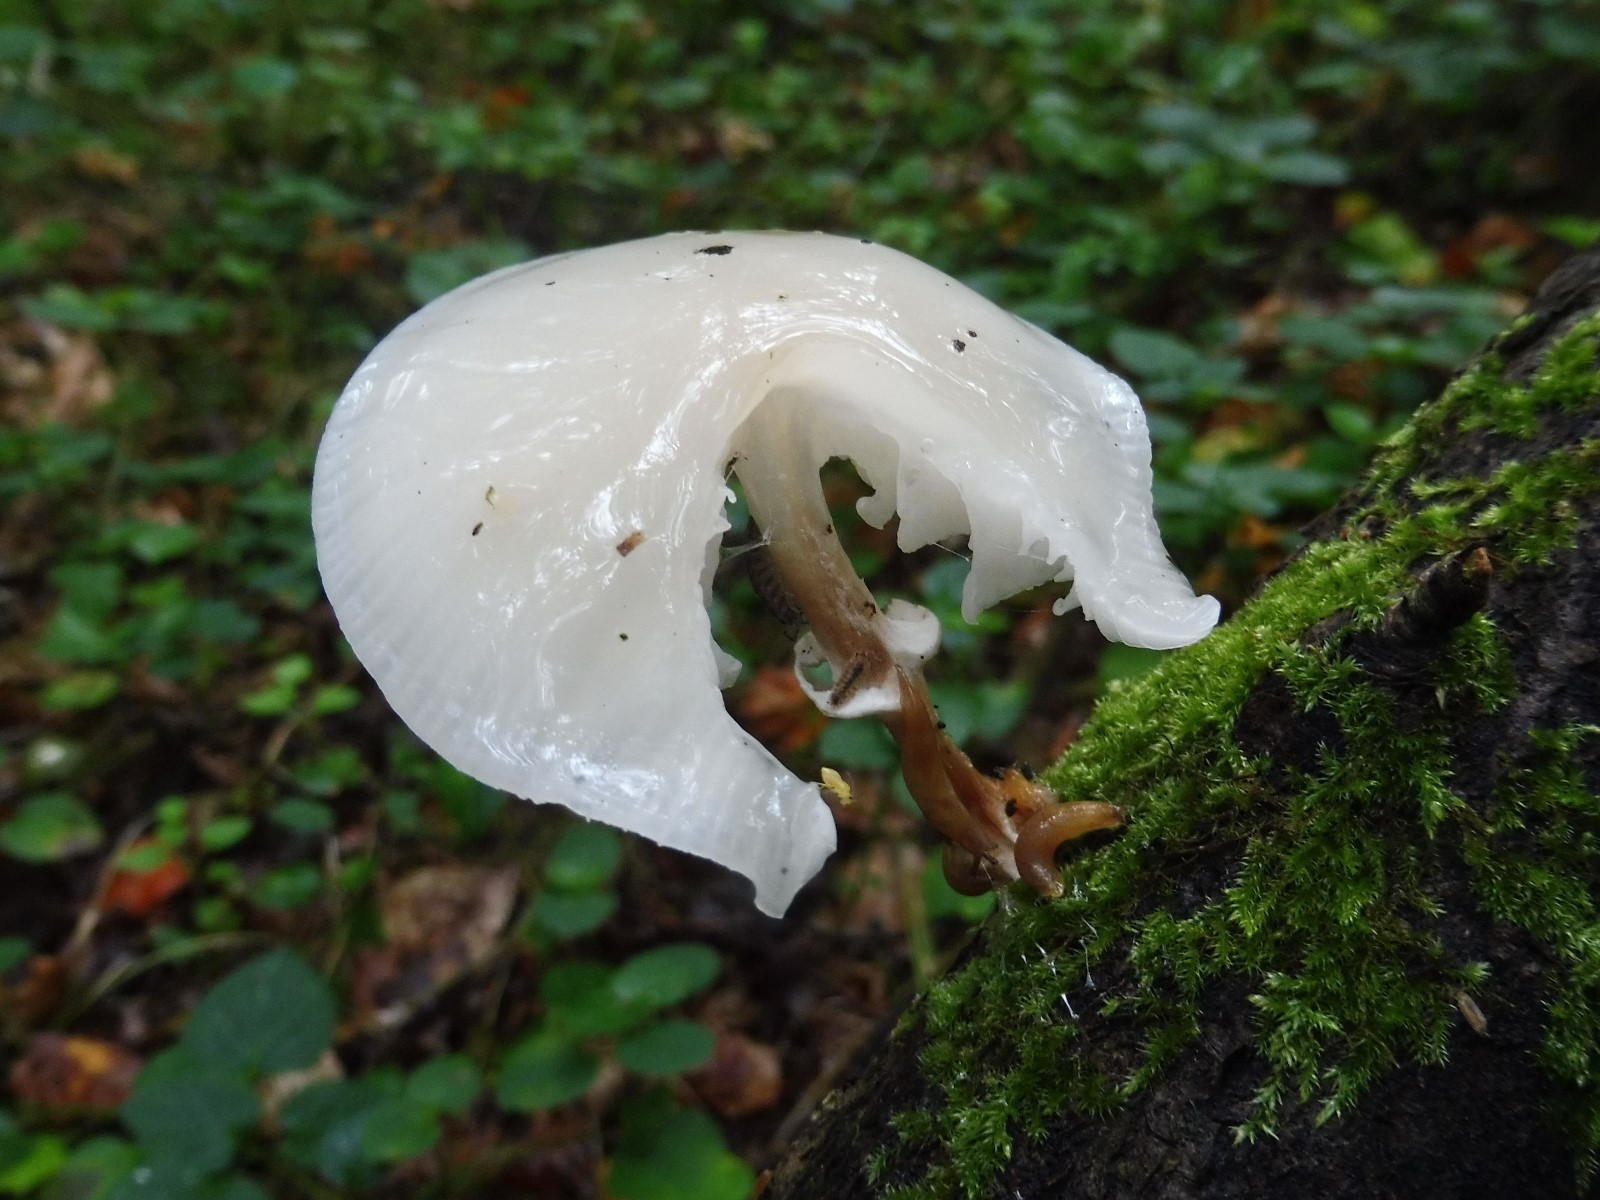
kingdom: Fungi
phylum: Basidiomycota
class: Agaricomycetes
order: Agaricales
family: Physalacriaceae
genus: Mucidula
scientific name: Mucidula mucida
